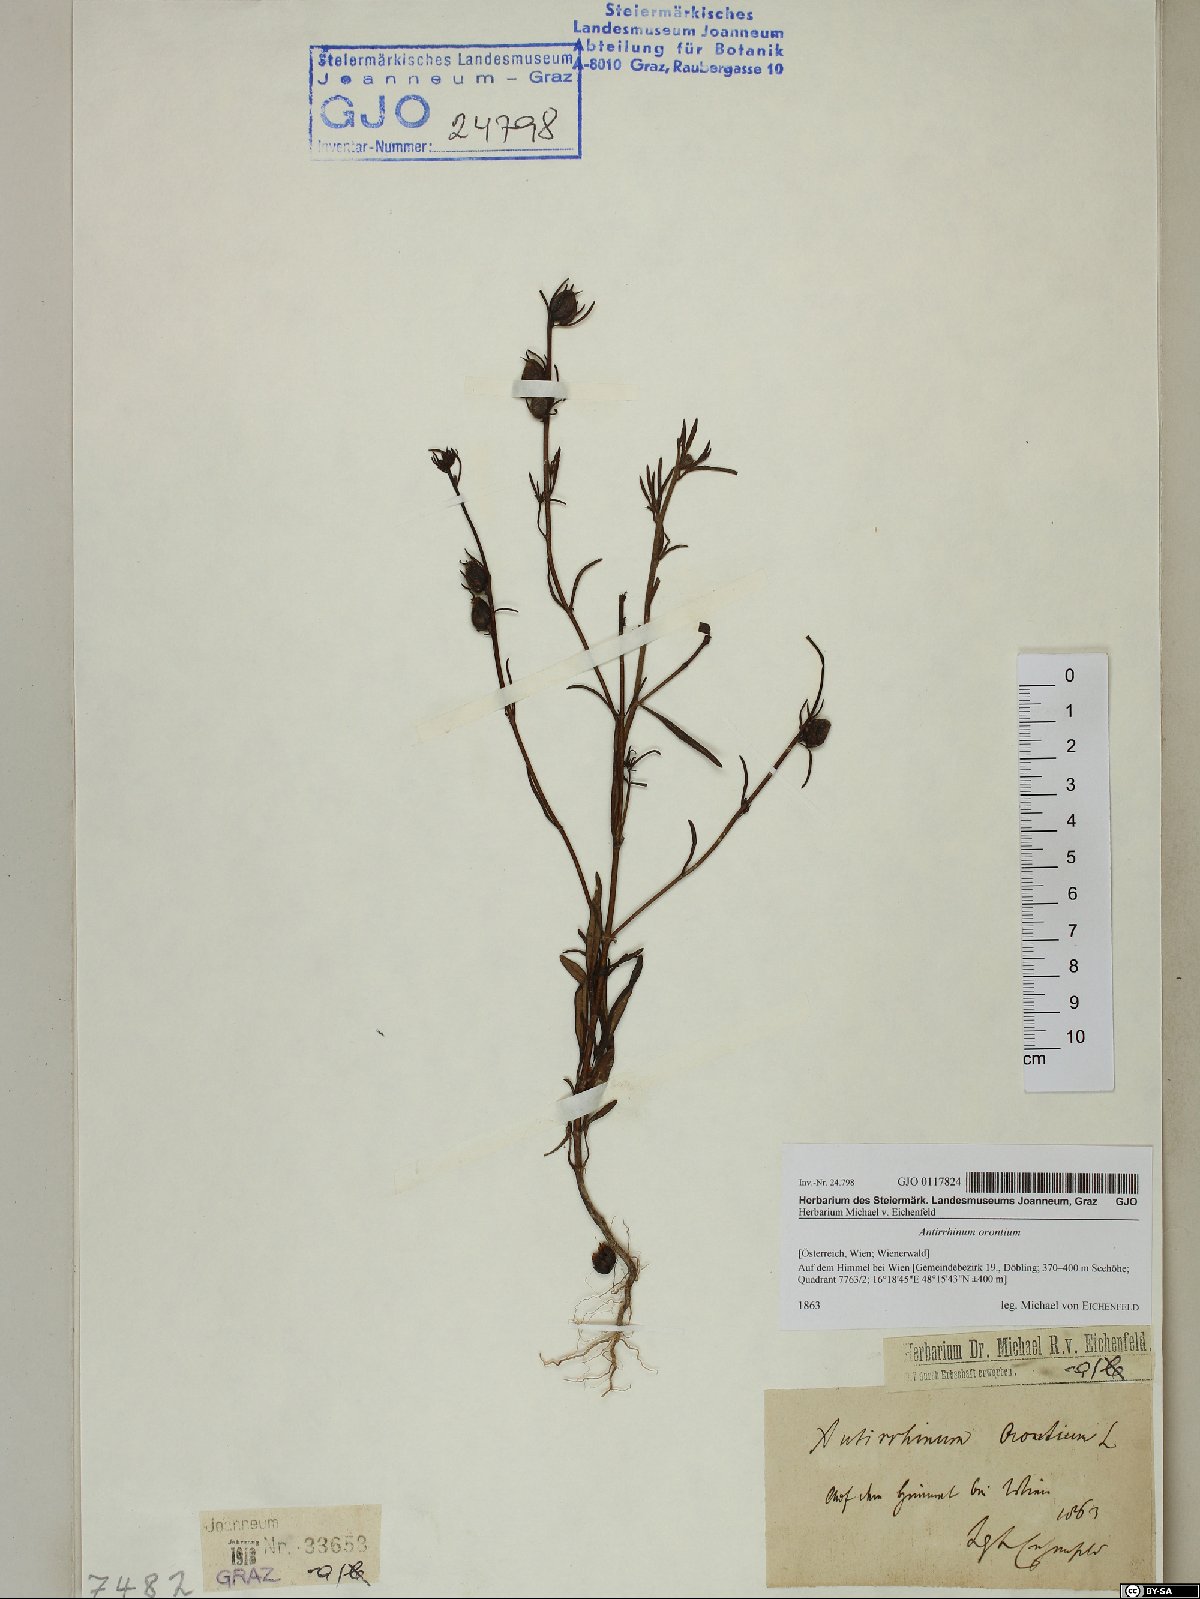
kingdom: Plantae
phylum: Tracheophyta
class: Magnoliopsida
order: Lamiales
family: Plantaginaceae
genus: Misopates
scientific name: Misopates orontium
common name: Weasel's-snout
